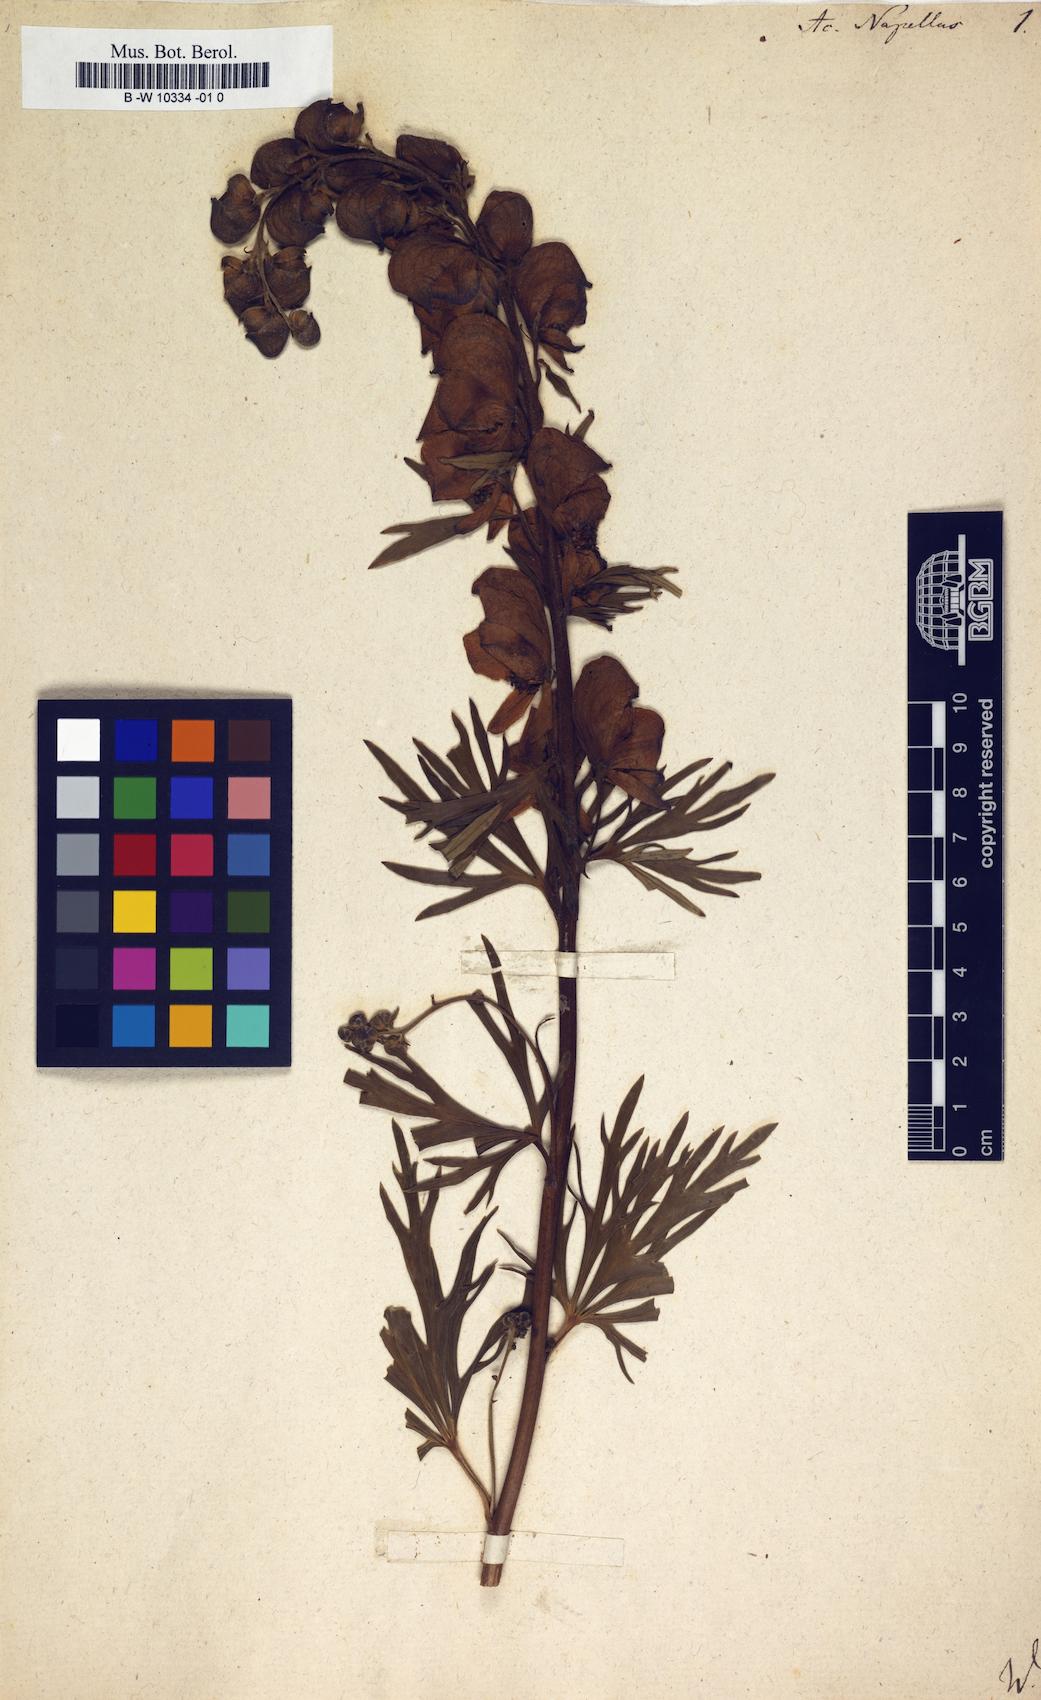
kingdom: Plantae
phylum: Tracheophyta
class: Magnoliopsida
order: Ranunculales
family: Ranunculaceae
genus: Aconitum
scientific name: Aconitum napellus
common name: Garden monkshood
